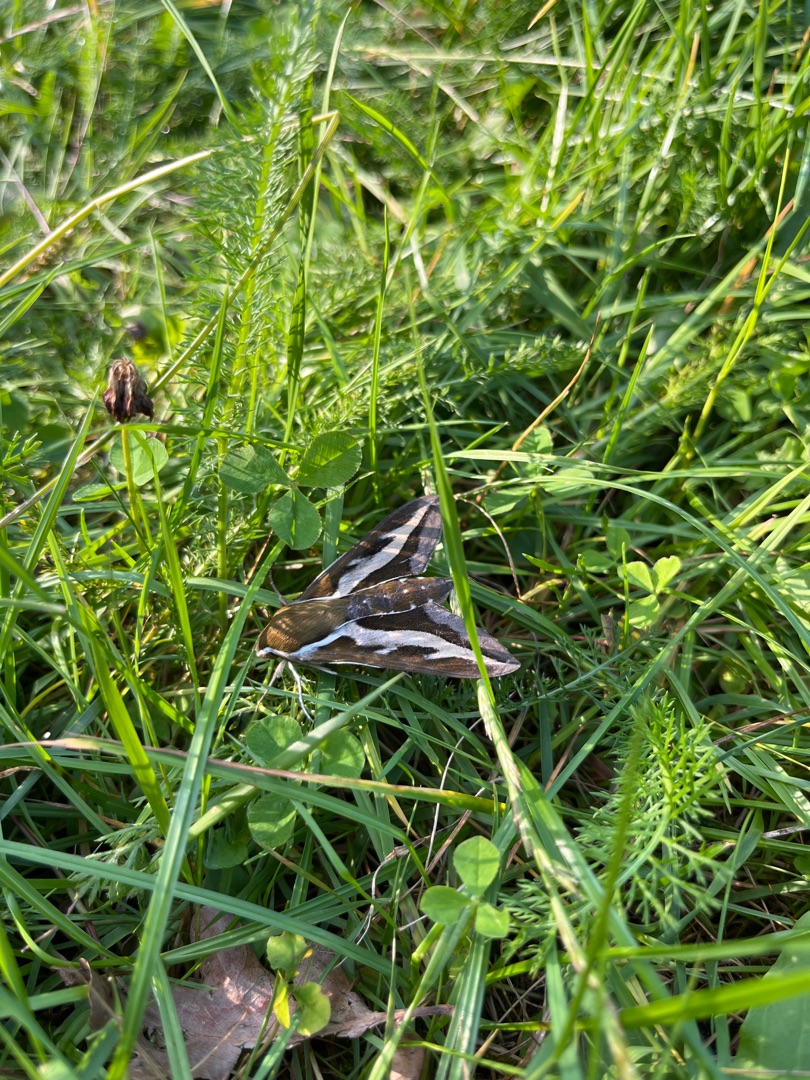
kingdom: Animalia
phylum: Arthropoda
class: Insecta
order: Lepidoptera
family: Sphingidae
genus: Hyles
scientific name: Hyles gallii
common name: Snerresværmer
